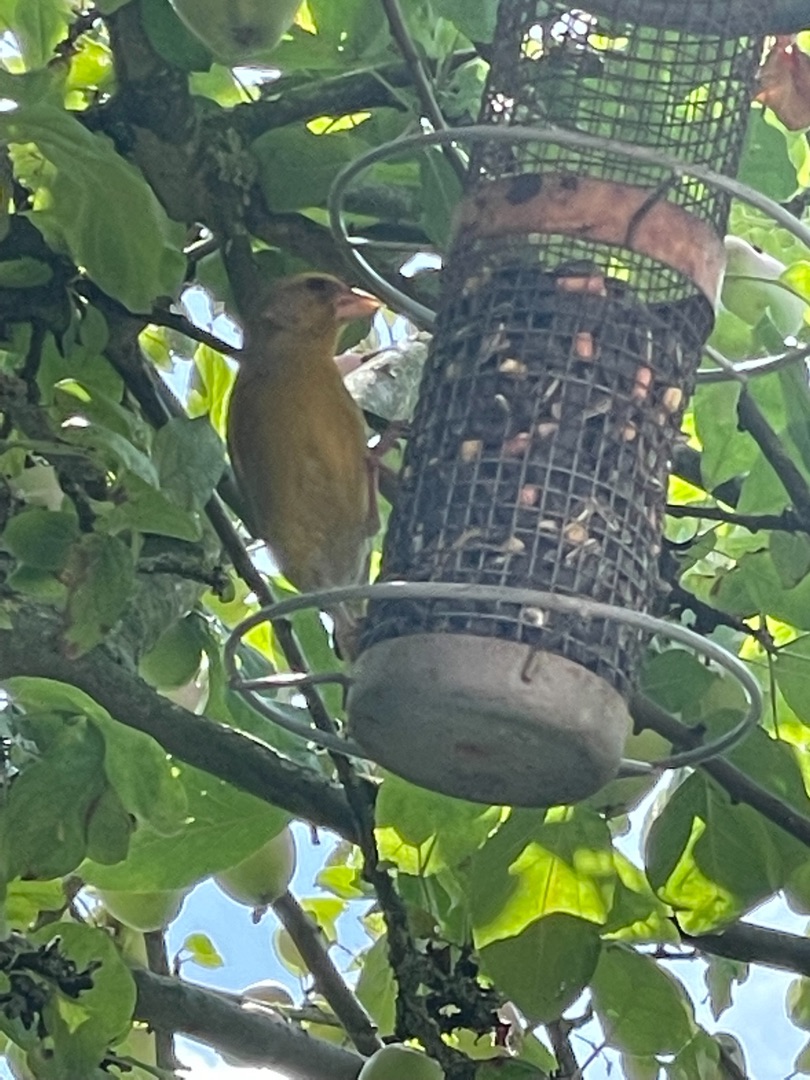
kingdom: Plantae
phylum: Tracheophyta
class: Liliopsida
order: Poales
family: Poaceae
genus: Chloris
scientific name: Chloris chloris
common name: Grønirisk
